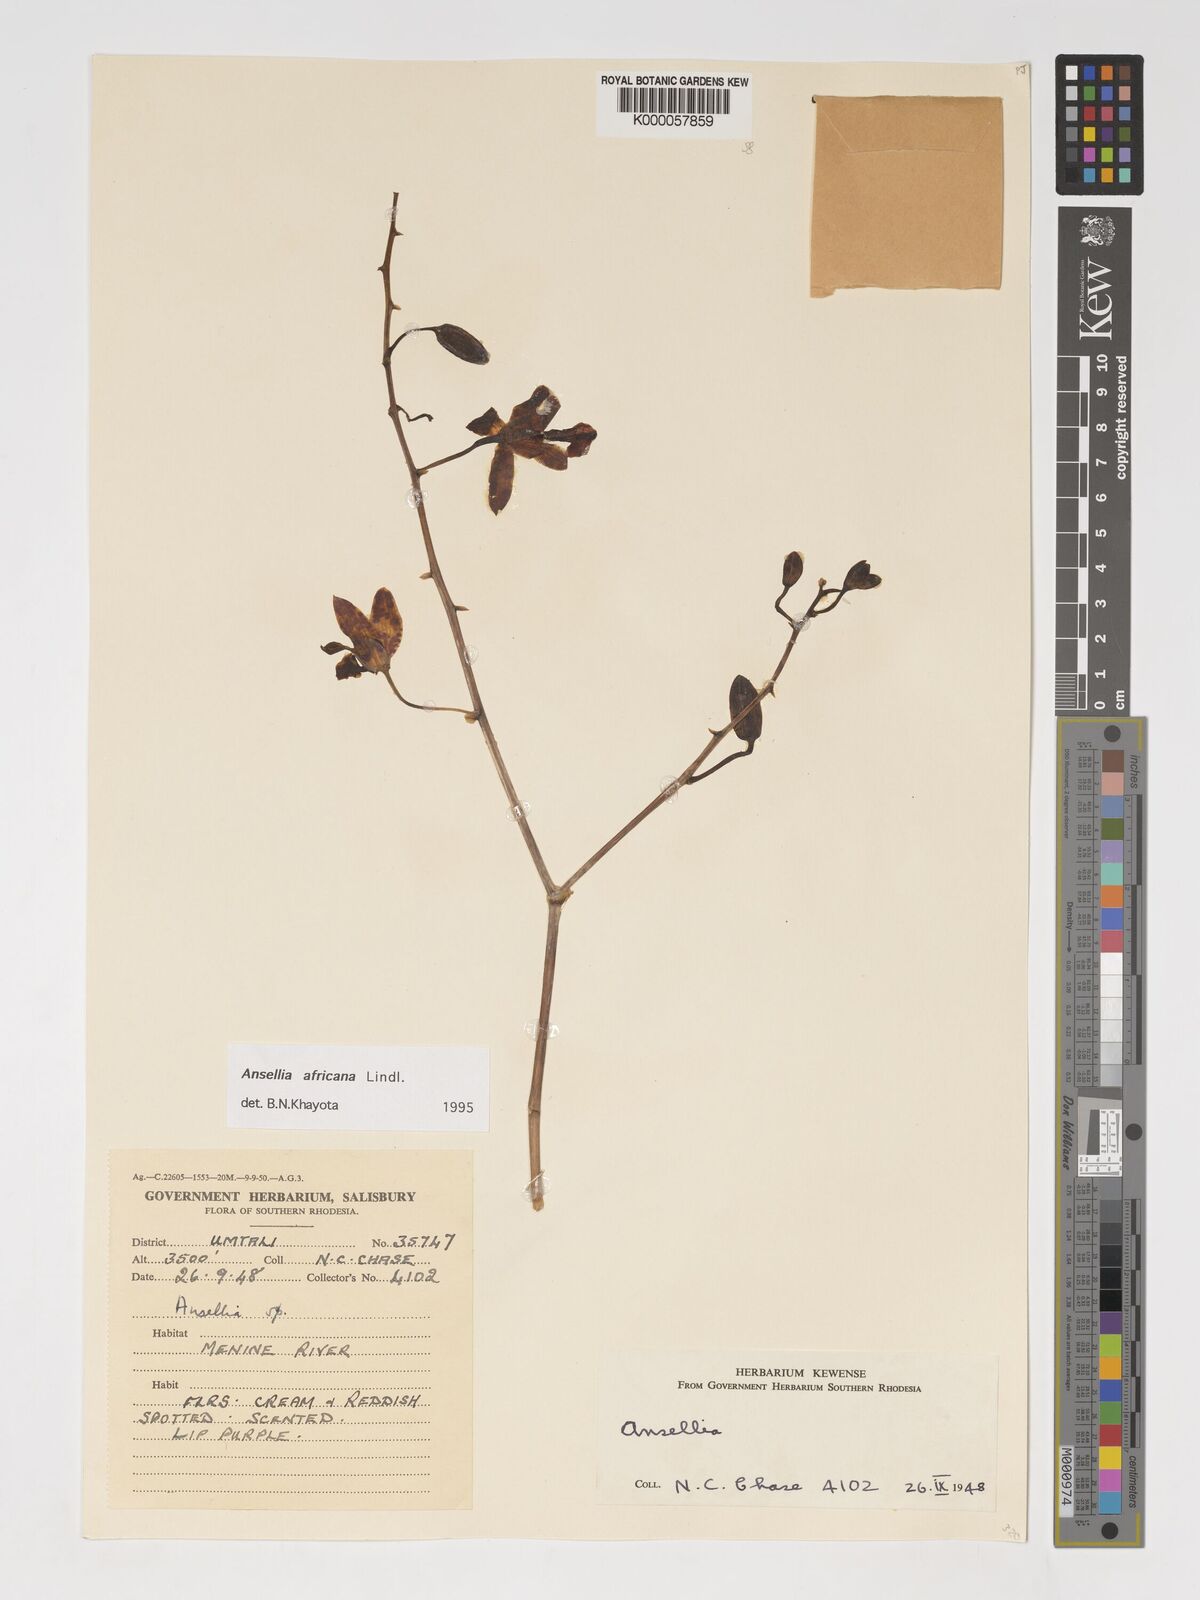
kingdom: Plantae
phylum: Tracheophyta
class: Liliopsida
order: Asparagales
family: Orchidaceae
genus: Ansellia
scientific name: Ansellia africana
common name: African ansellia
